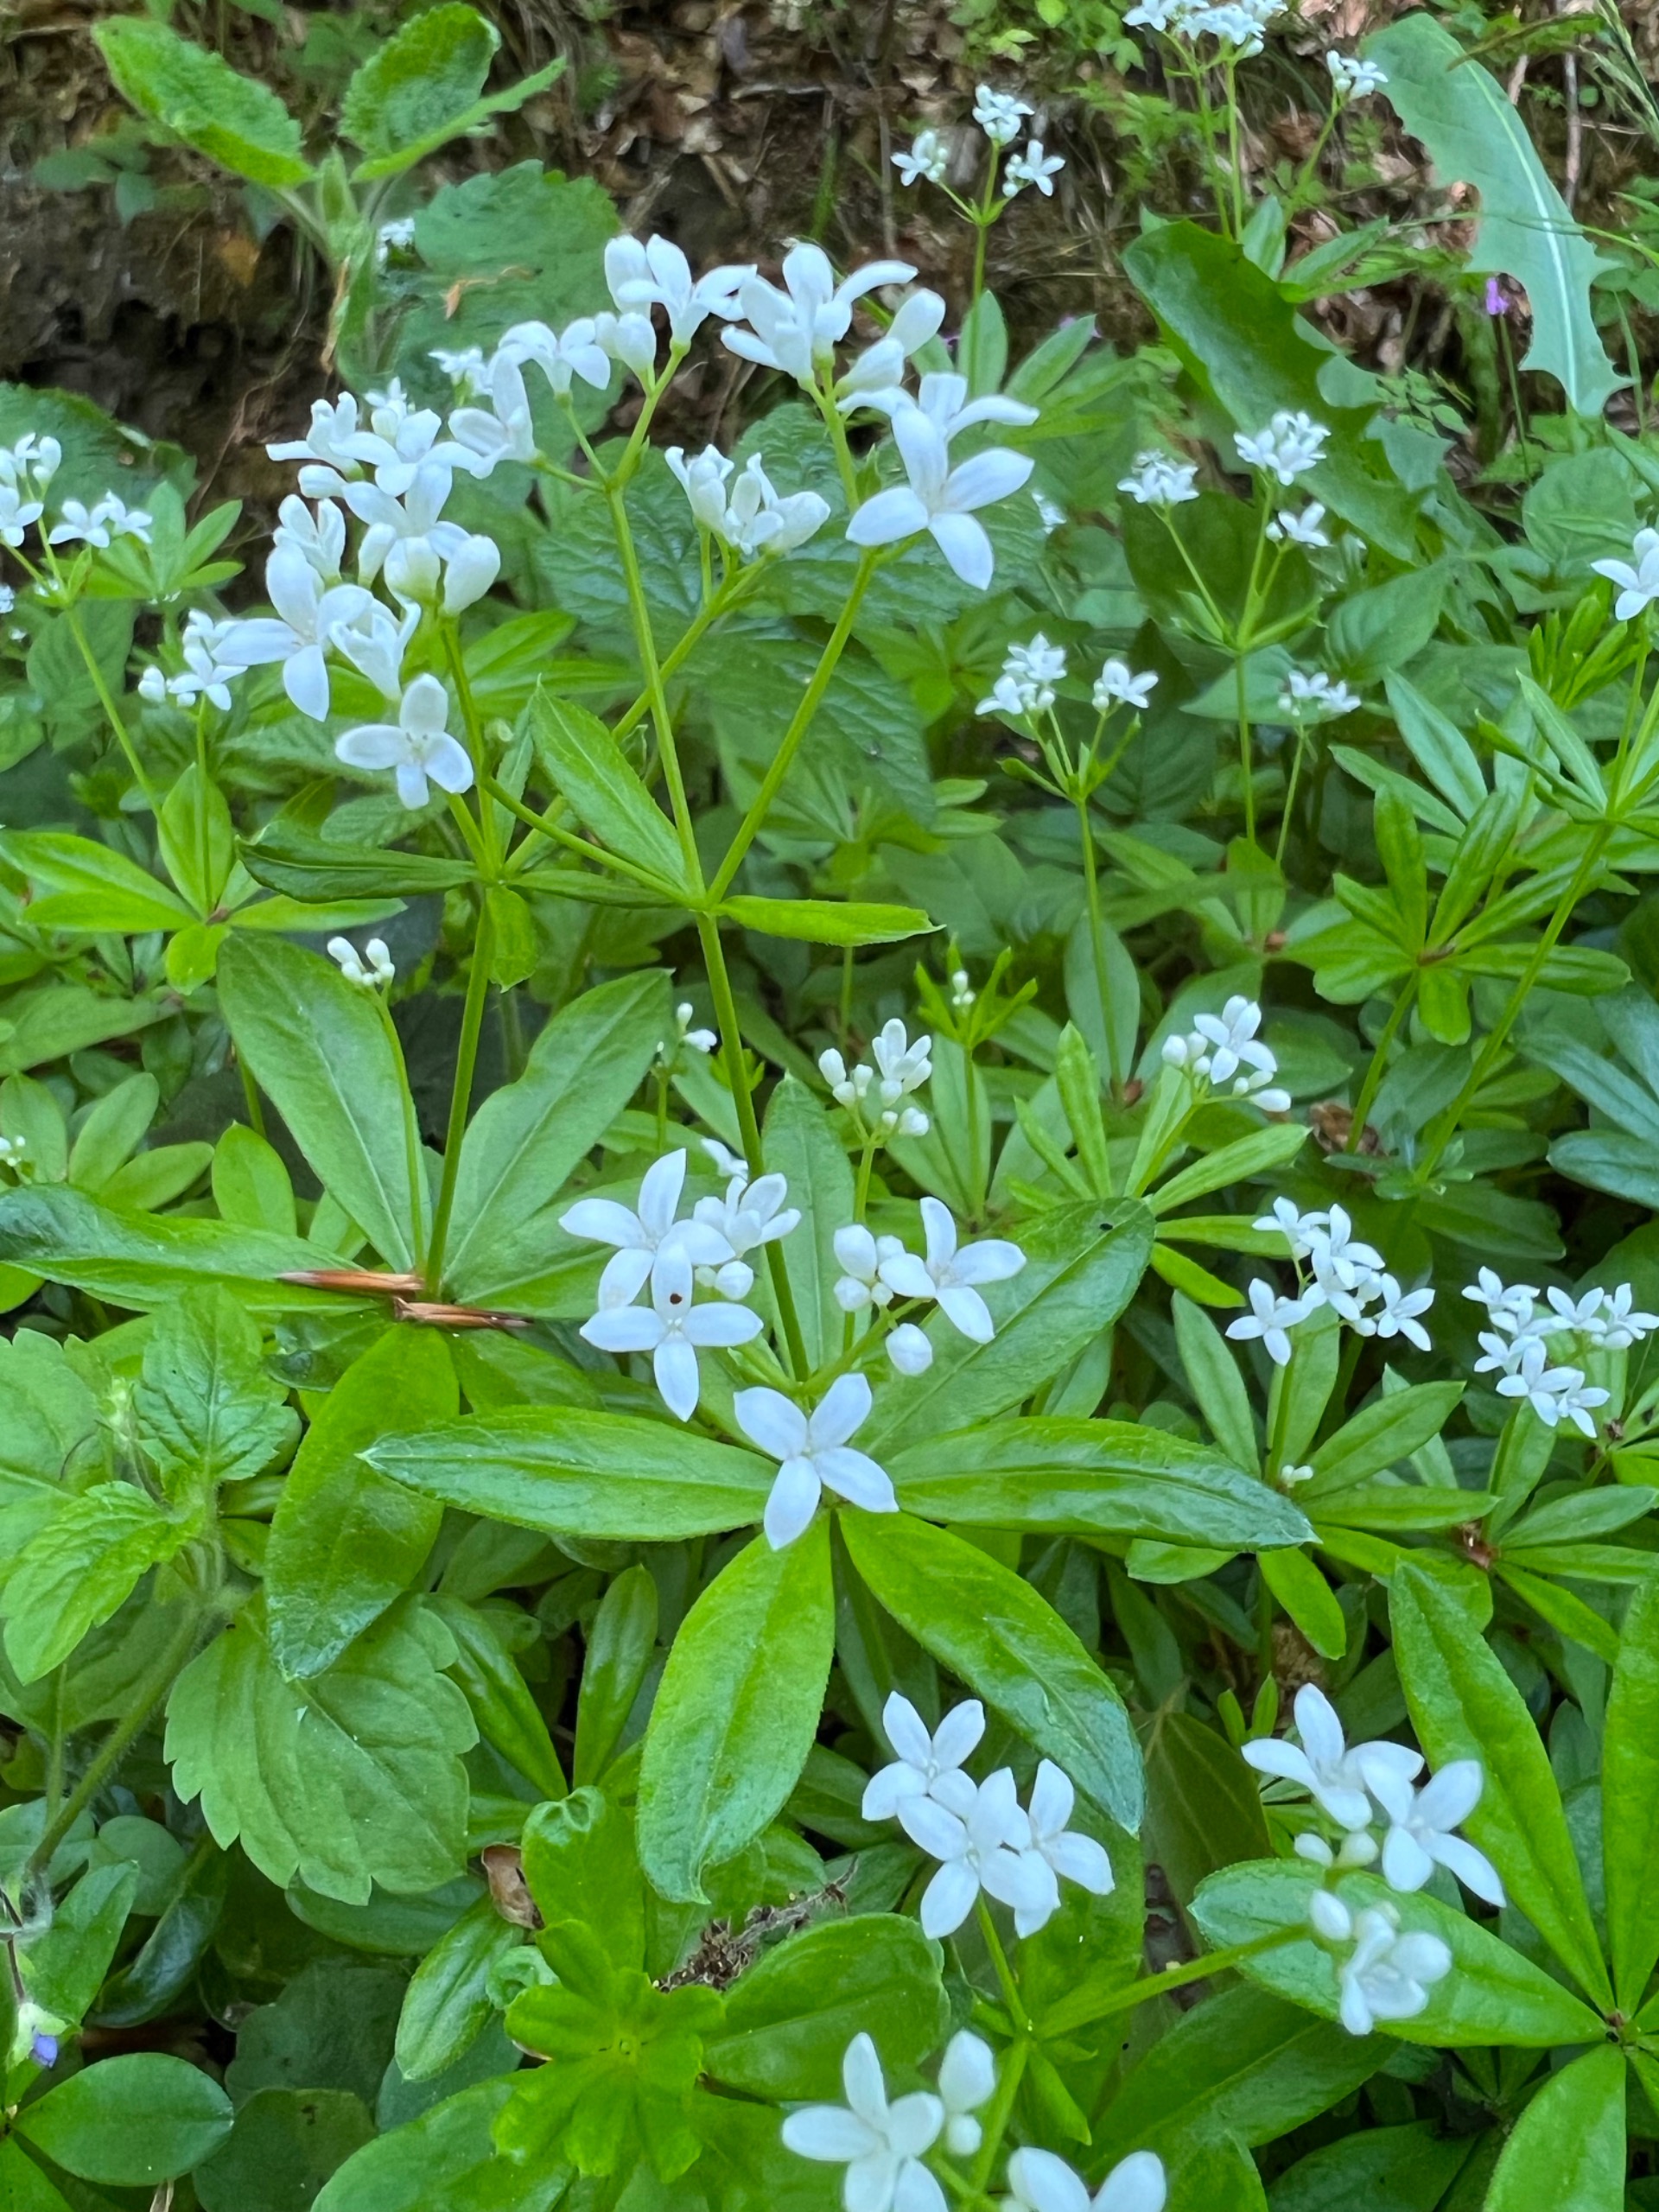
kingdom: Plantae
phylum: Tracheophyta
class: Magnoliopsida
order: Gentianales
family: Rubiaceae
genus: Galium
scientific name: Galium odoratum
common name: Skovmærke
